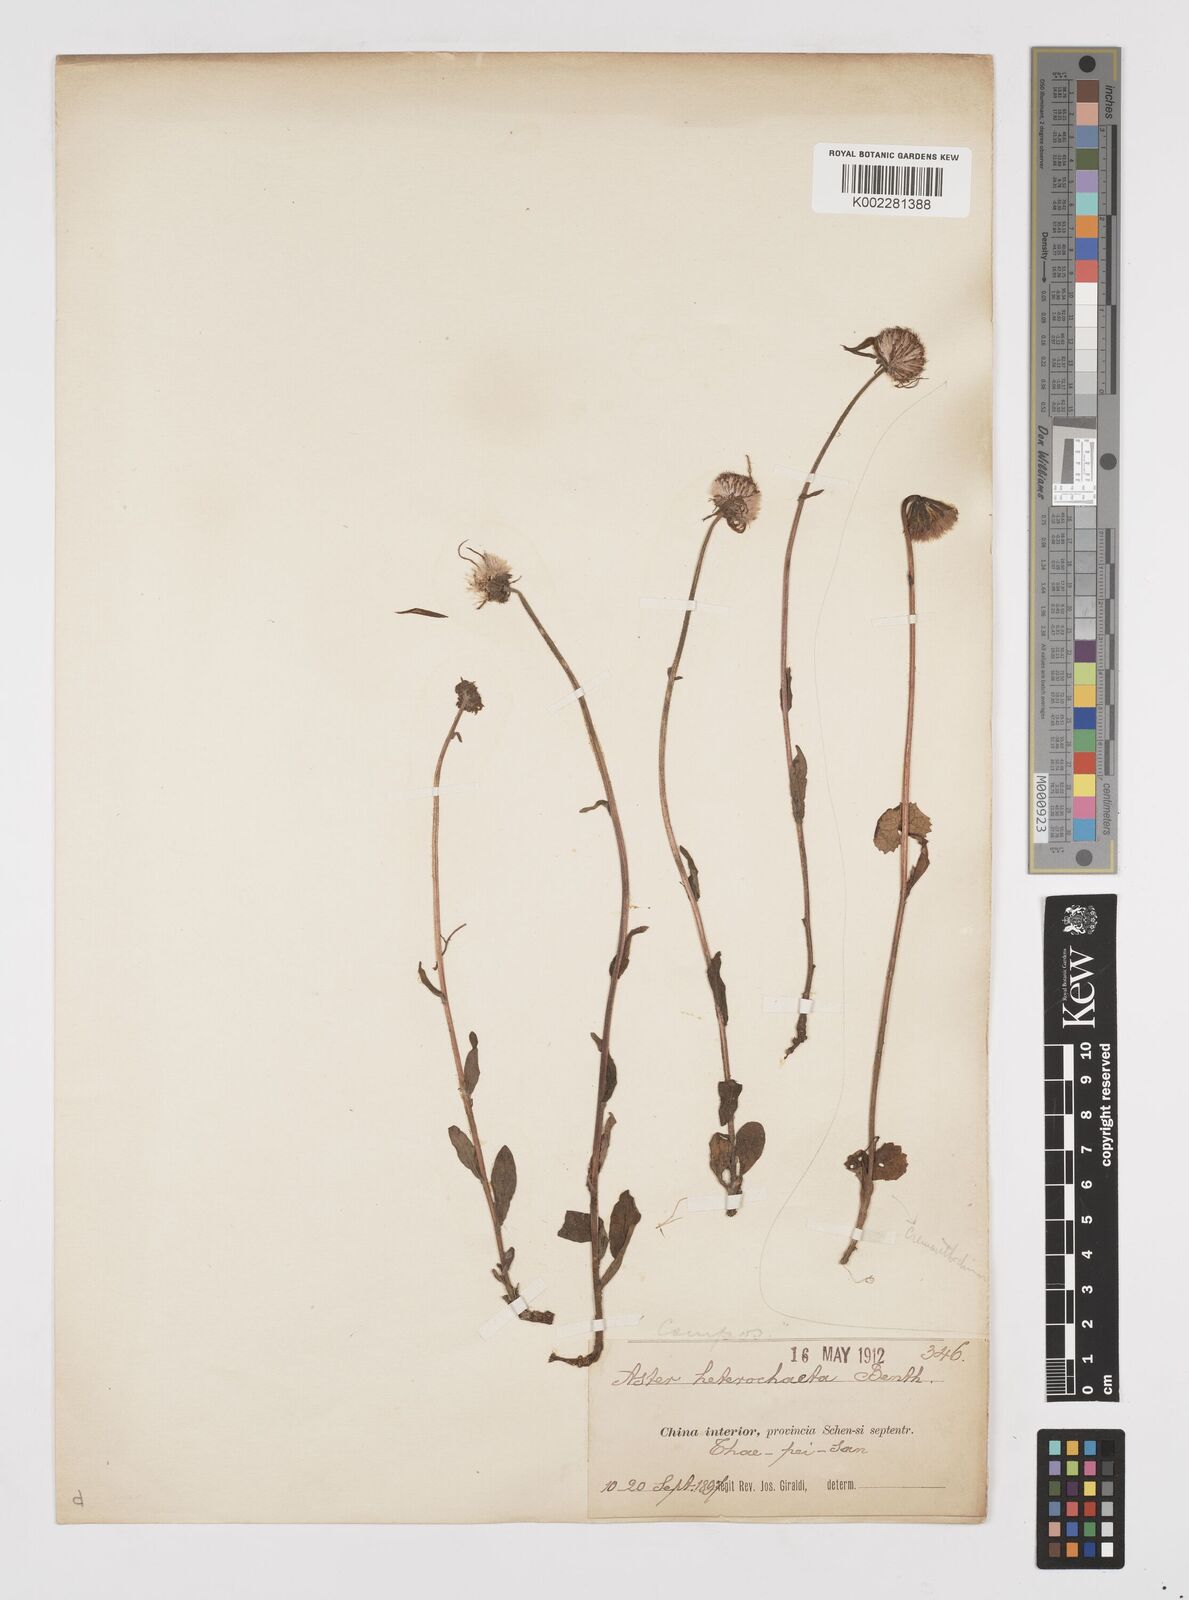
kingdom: Plantae
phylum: Tracheophyta
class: Magnoliopsida
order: Asterales
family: Asteraceae
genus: Tibetiodes
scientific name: Tibetiodes flaccida
